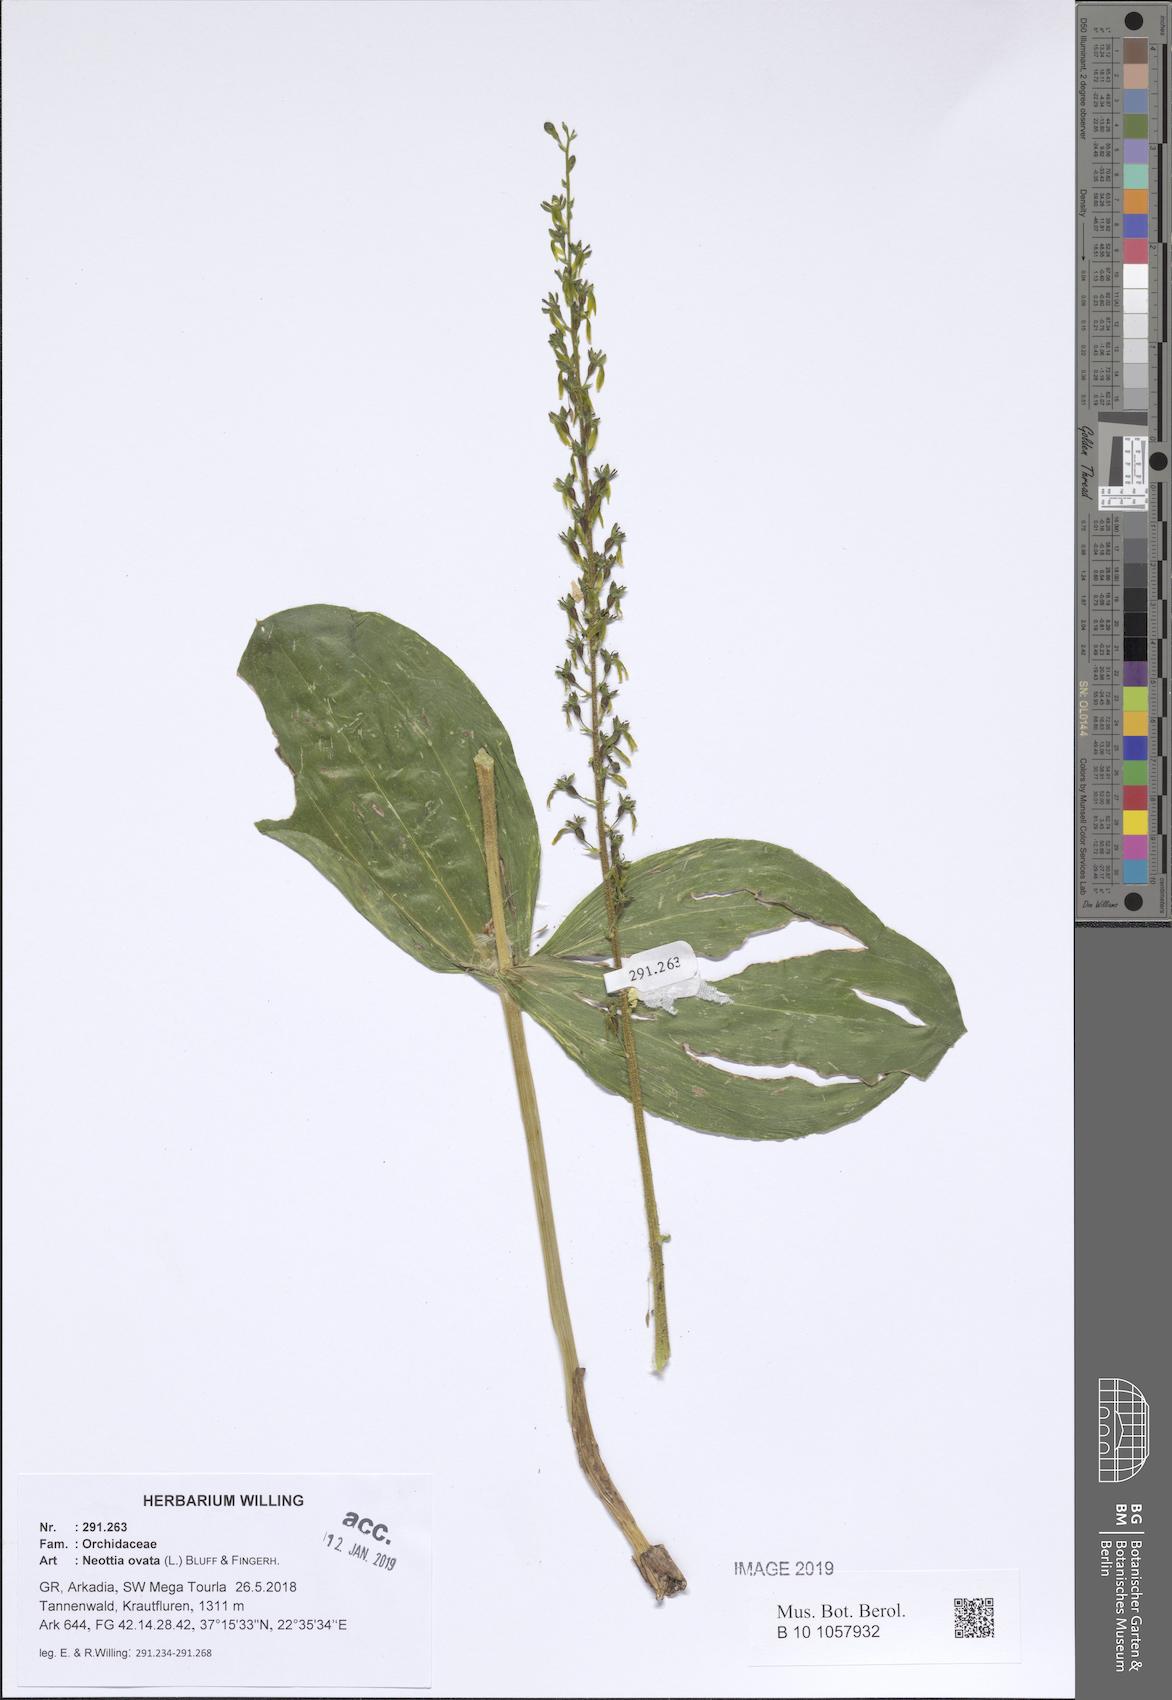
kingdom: Plantae
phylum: Tracheophyta
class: Liliopsida
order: Asparagales
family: Orchidaceae
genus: Neottia
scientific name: Neottia ovata
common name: Common twayblade
